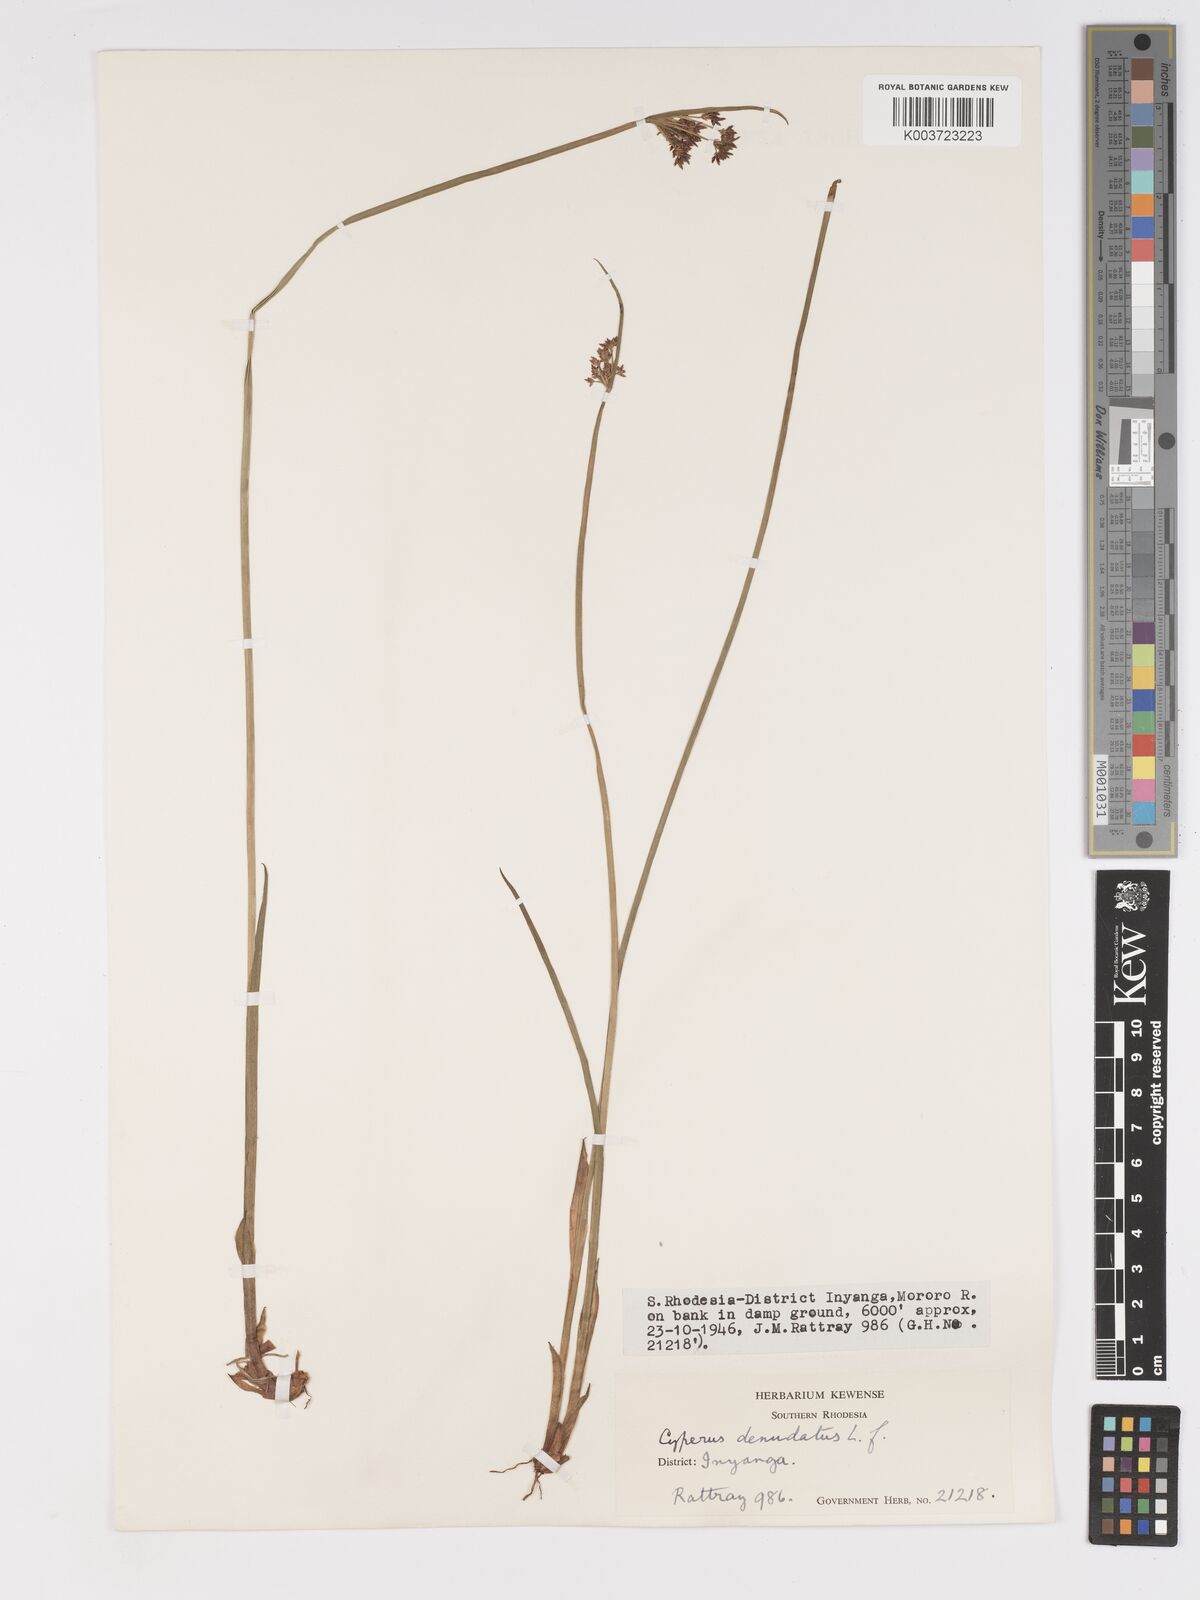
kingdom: Plantae
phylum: Tracheophyta
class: Liliopsida
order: Poales
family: Cyperaceae
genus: Cyperus
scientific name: Cyperus haspan
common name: Haspan flatsedge
